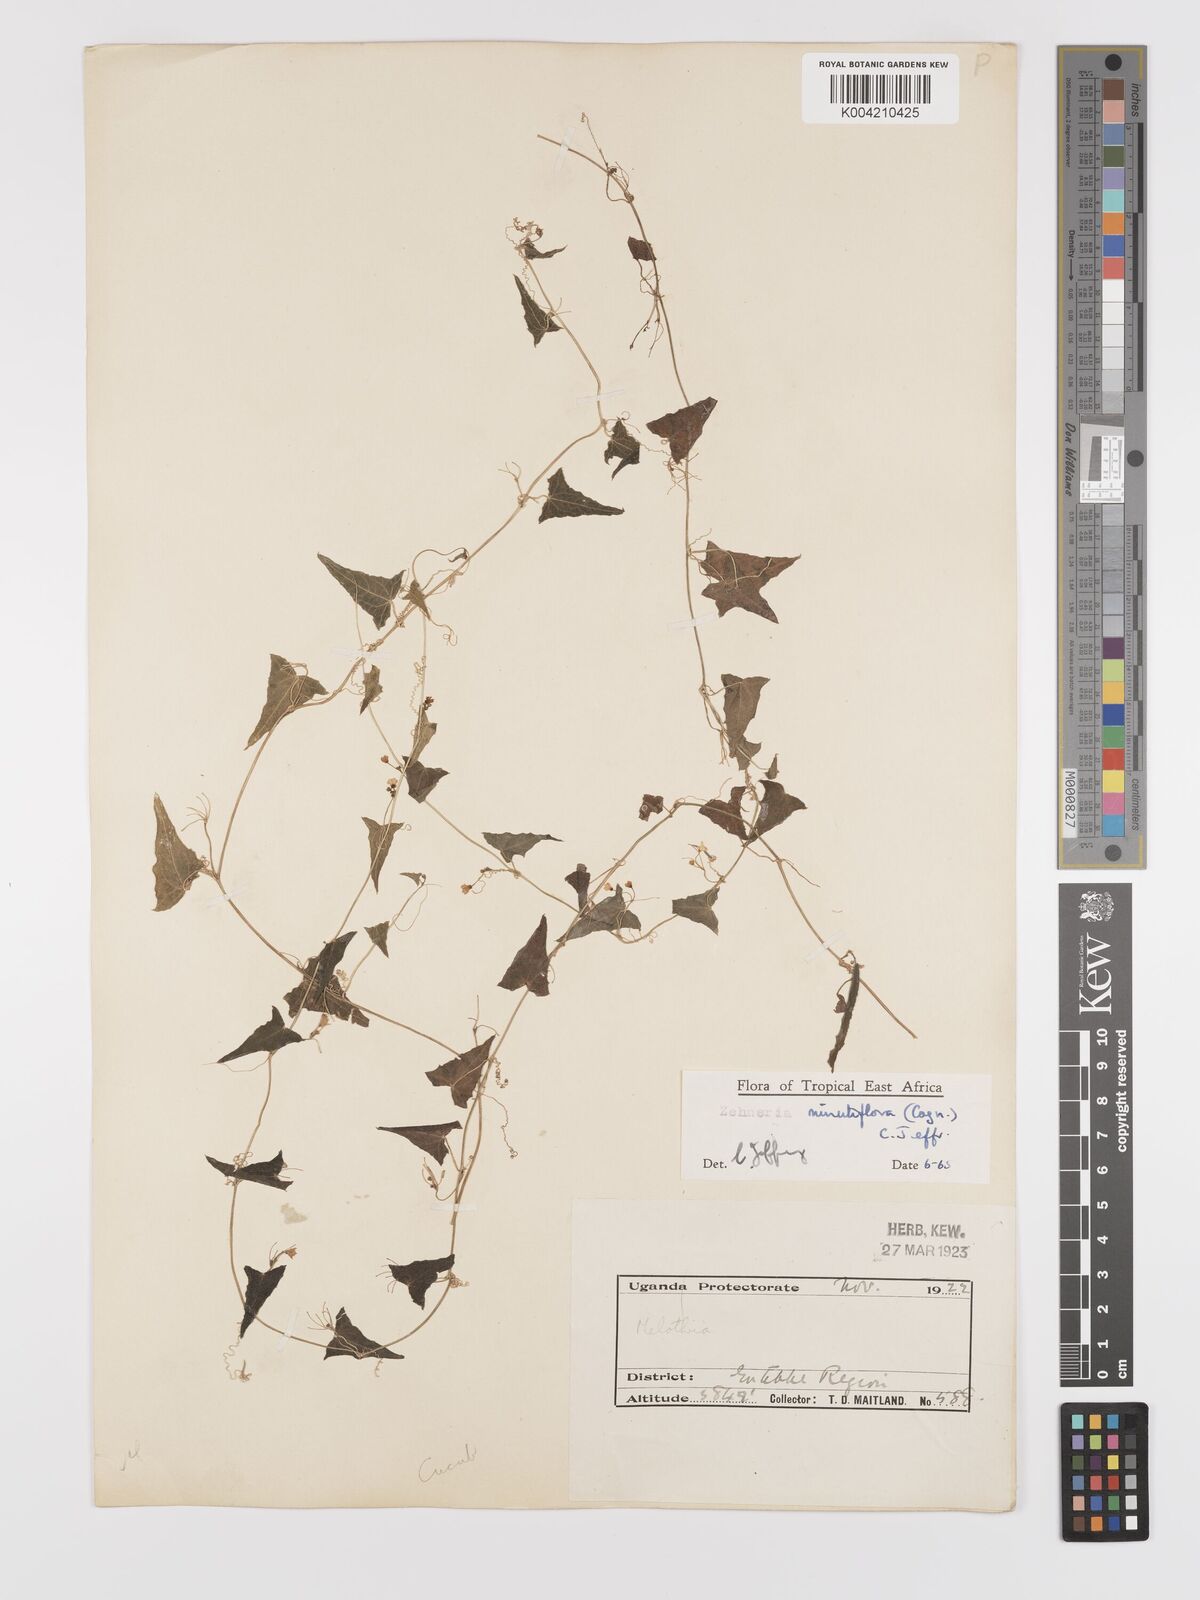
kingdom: Plantae
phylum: Tracheophyta
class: Magnoliopsida
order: Cucurbitales
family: Cucurbitaceae
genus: Zehneria
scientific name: Zehneria minutiflora
